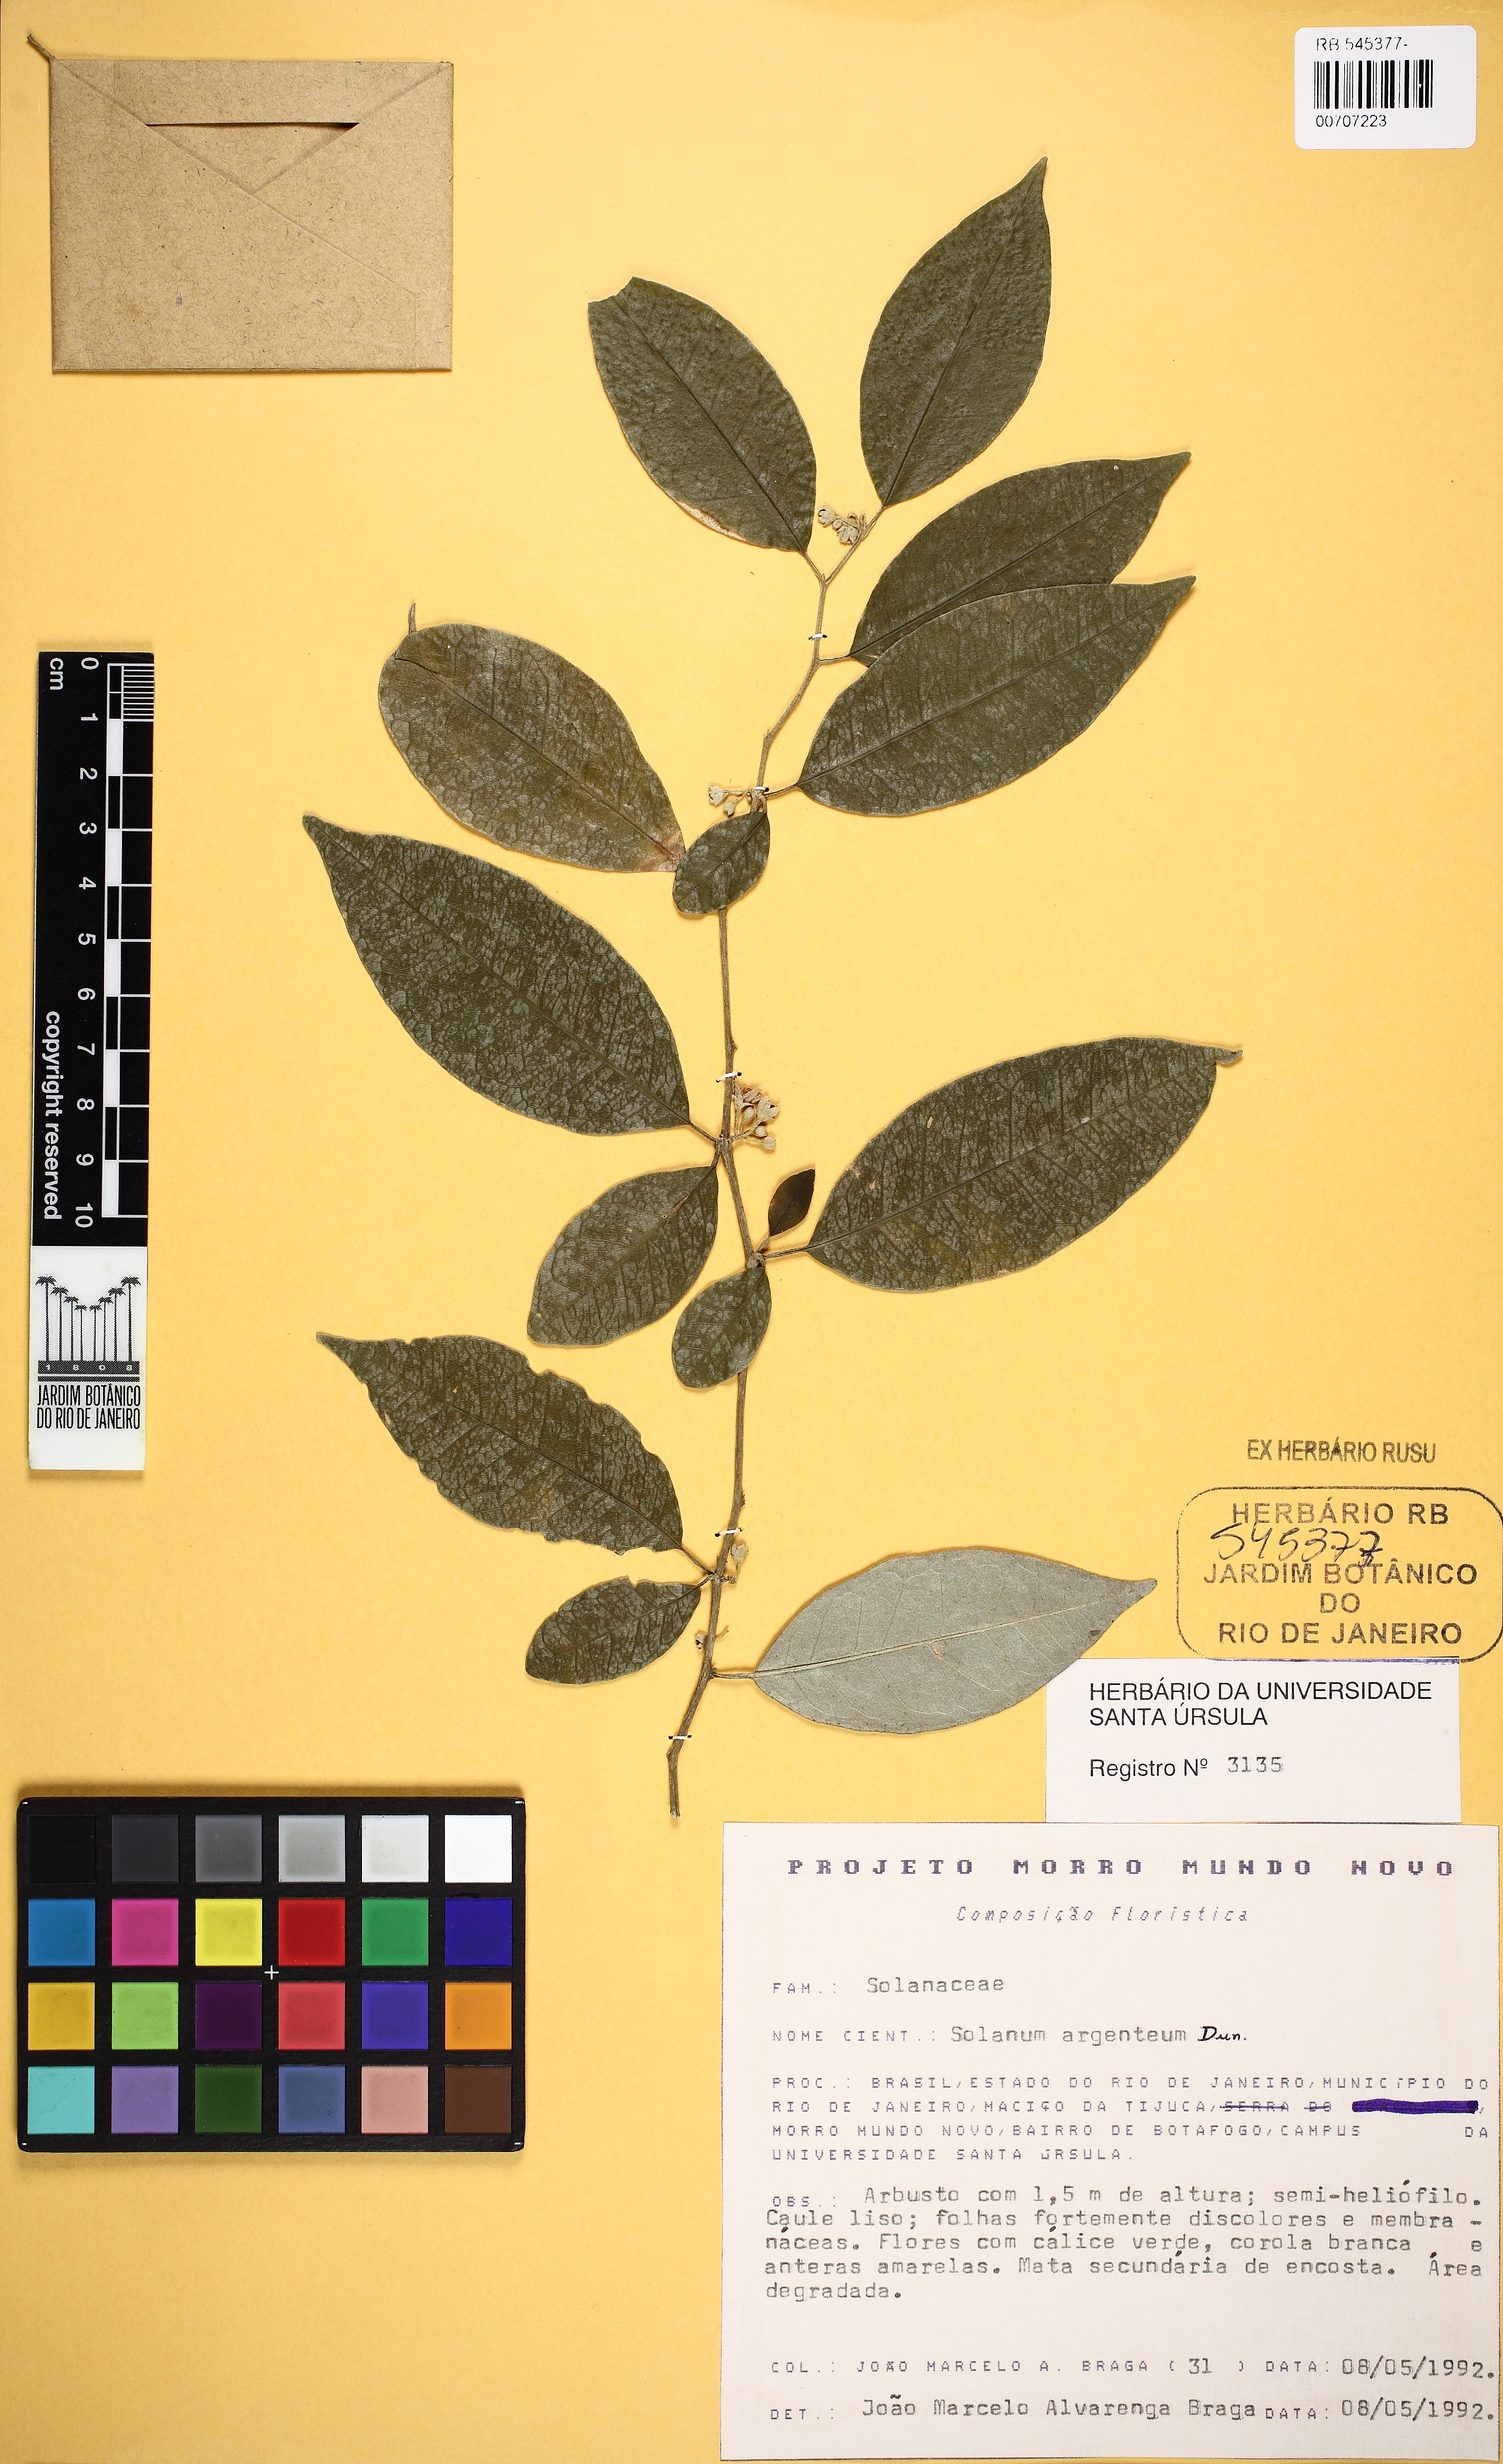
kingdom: Plantae
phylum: Tracheophyta
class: Magnoliopsida
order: Solanales
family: Solanaceae
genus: Solanum
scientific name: Solanum swartzianum
